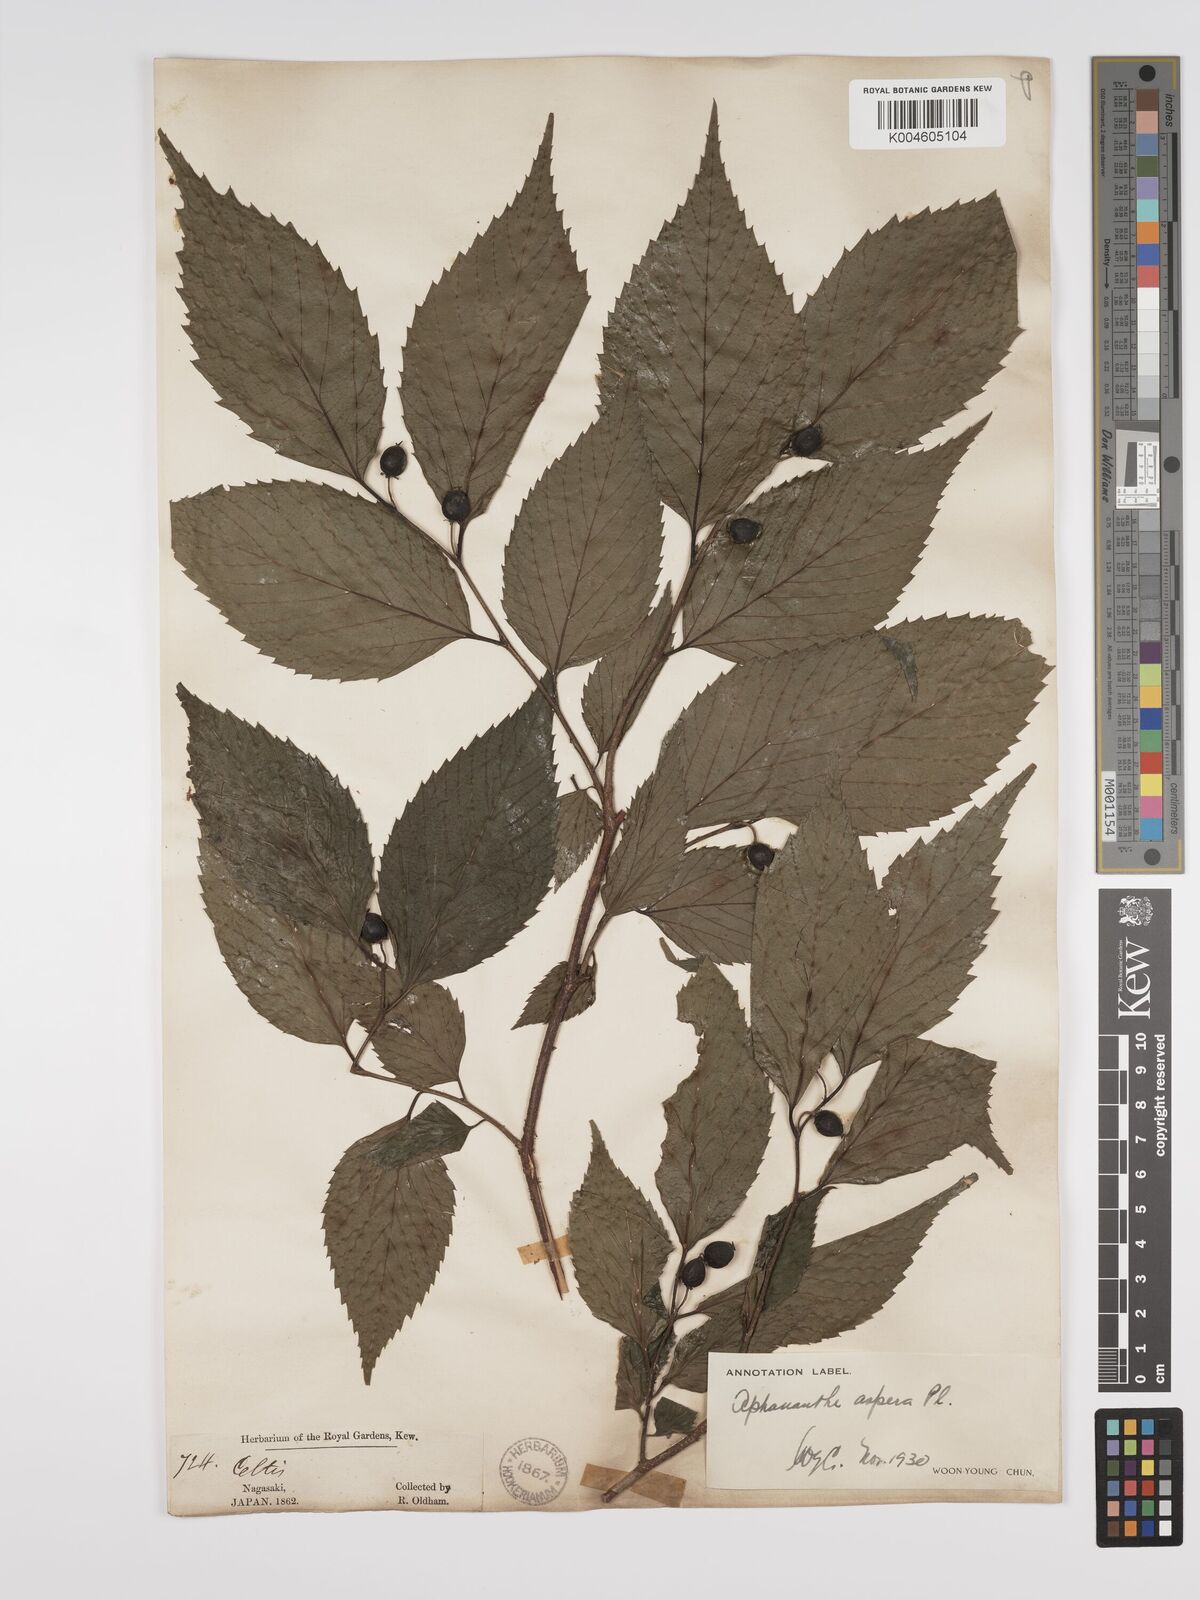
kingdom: Plantae
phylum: Tracheophyta
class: Magnoliopsida
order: Rosales
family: Cannabaceae
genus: Aphananthe
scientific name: Aphananthe aspera
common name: Mukutree
